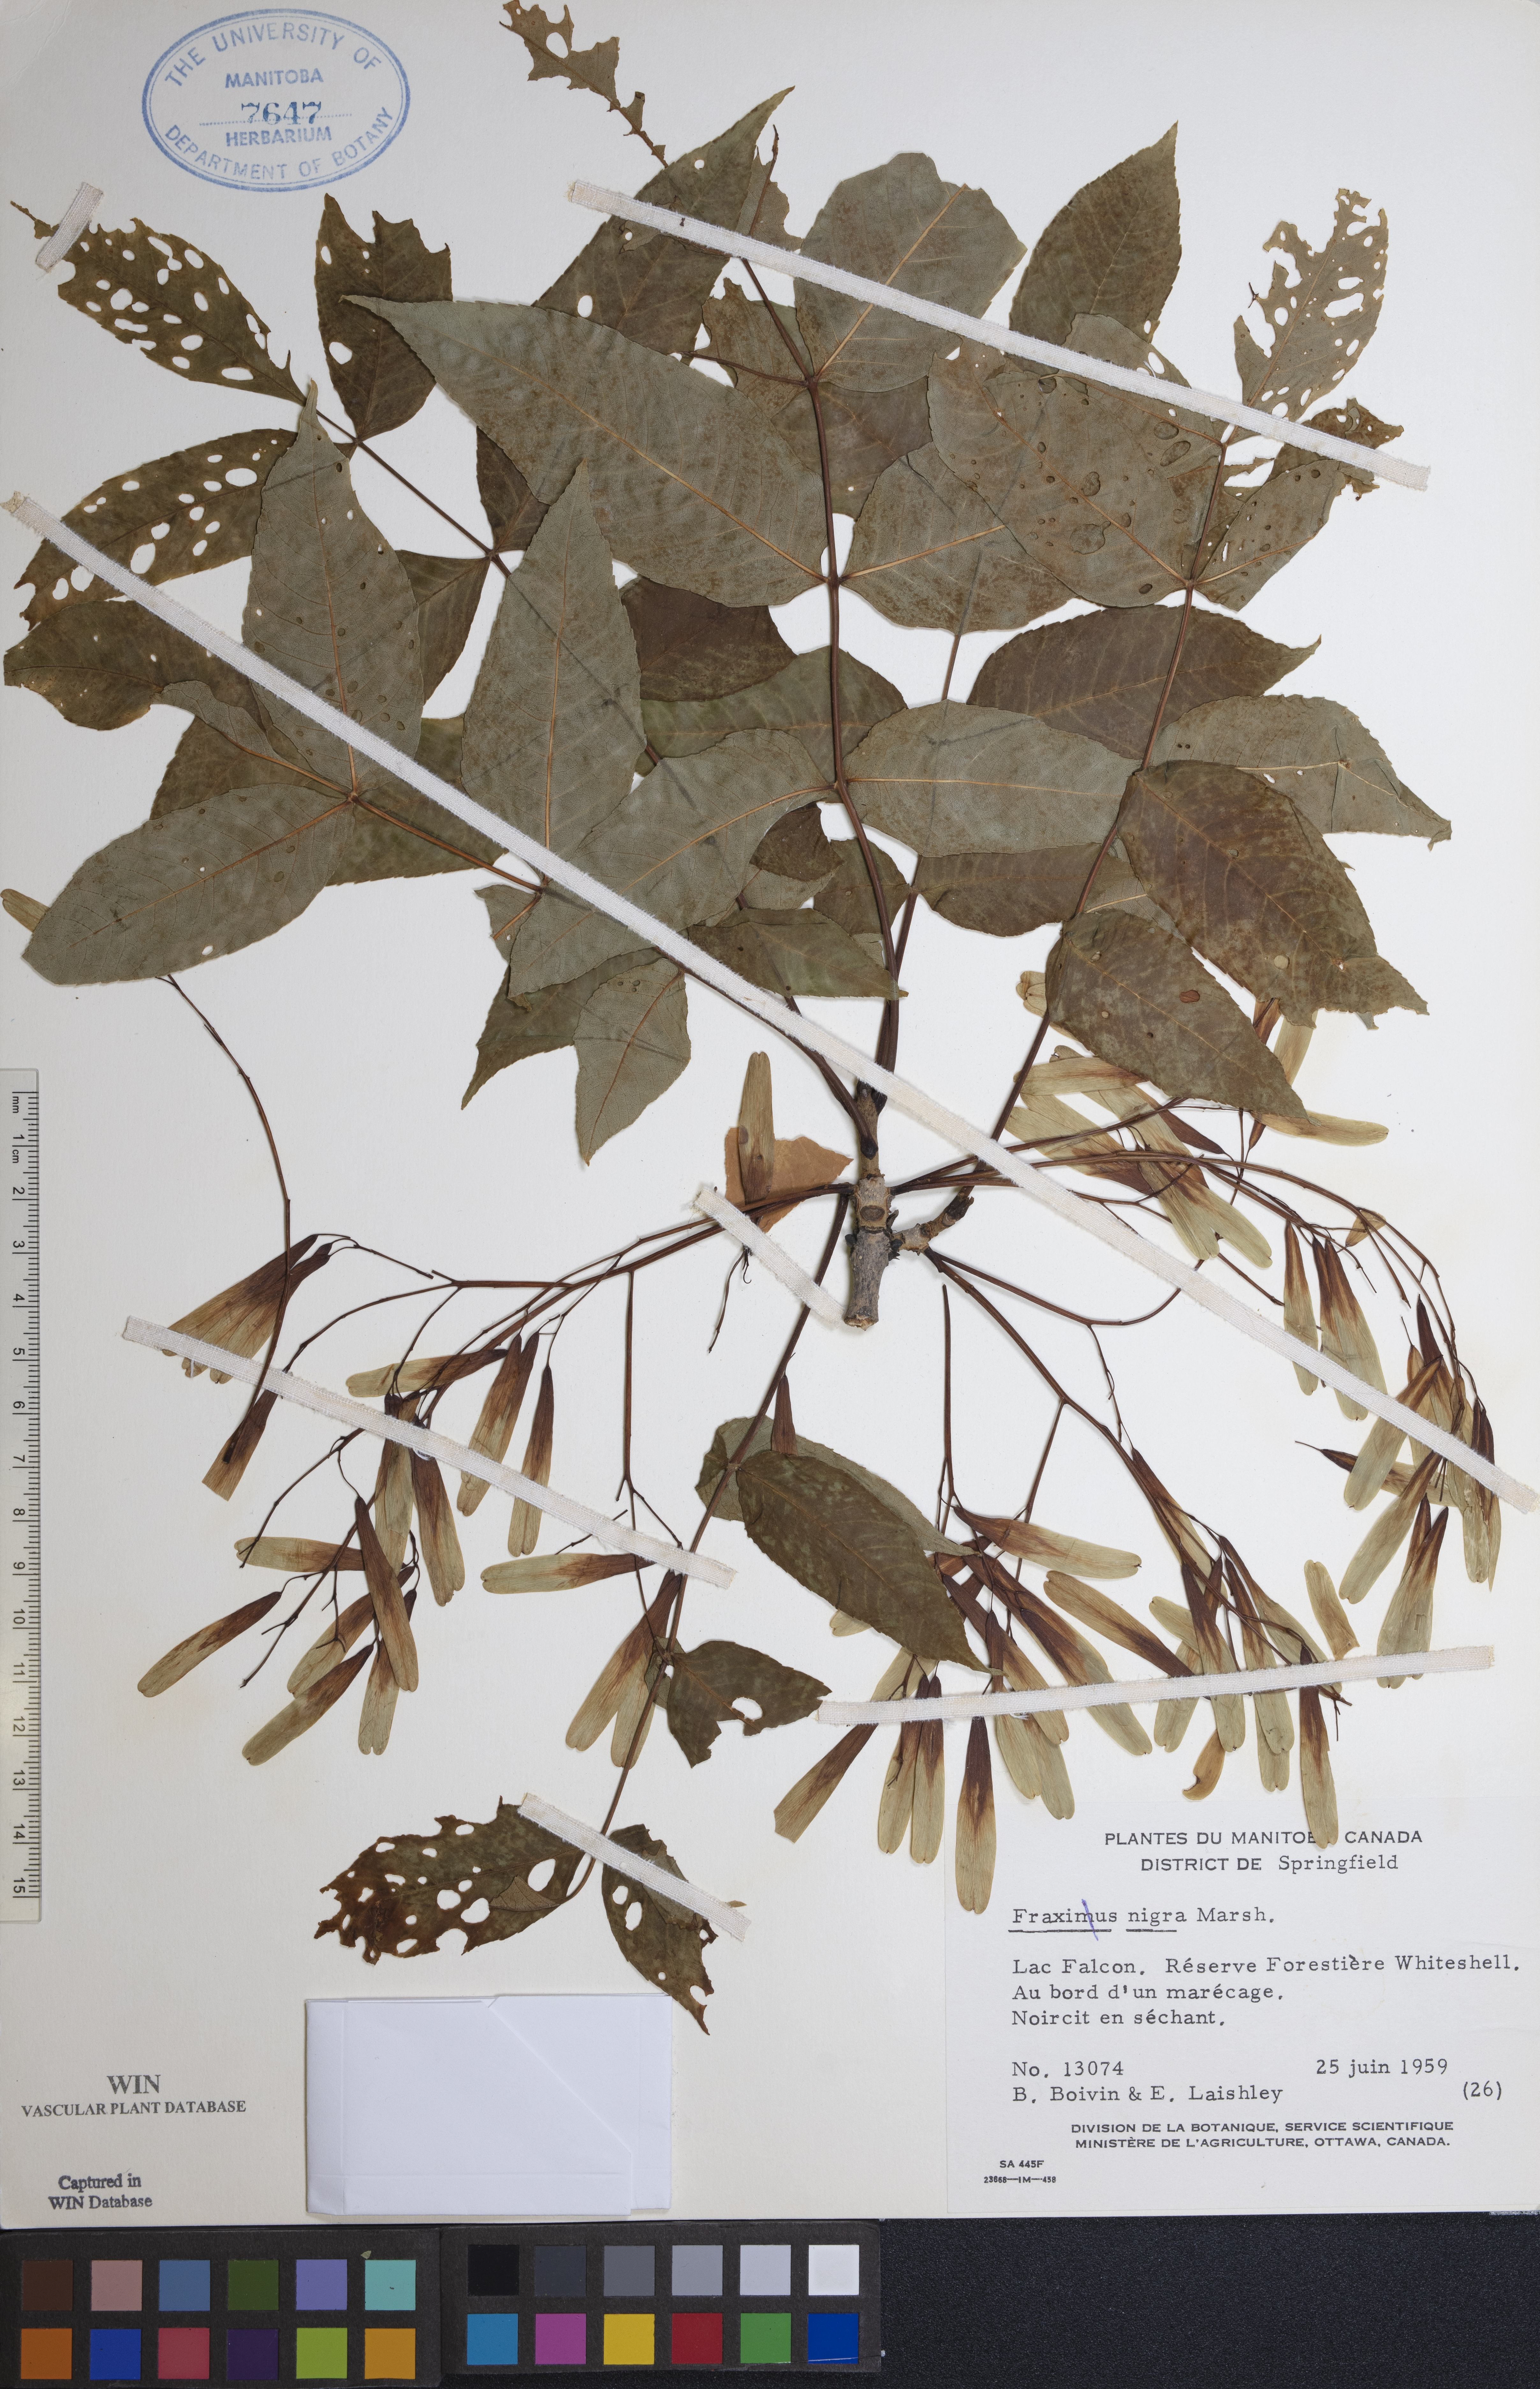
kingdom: Plantae
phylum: Tracheophyta
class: Magnoliopsida
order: Lamiales
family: Oleaceae
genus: Fraxinus
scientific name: Fraxinus nigra
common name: Black ash
